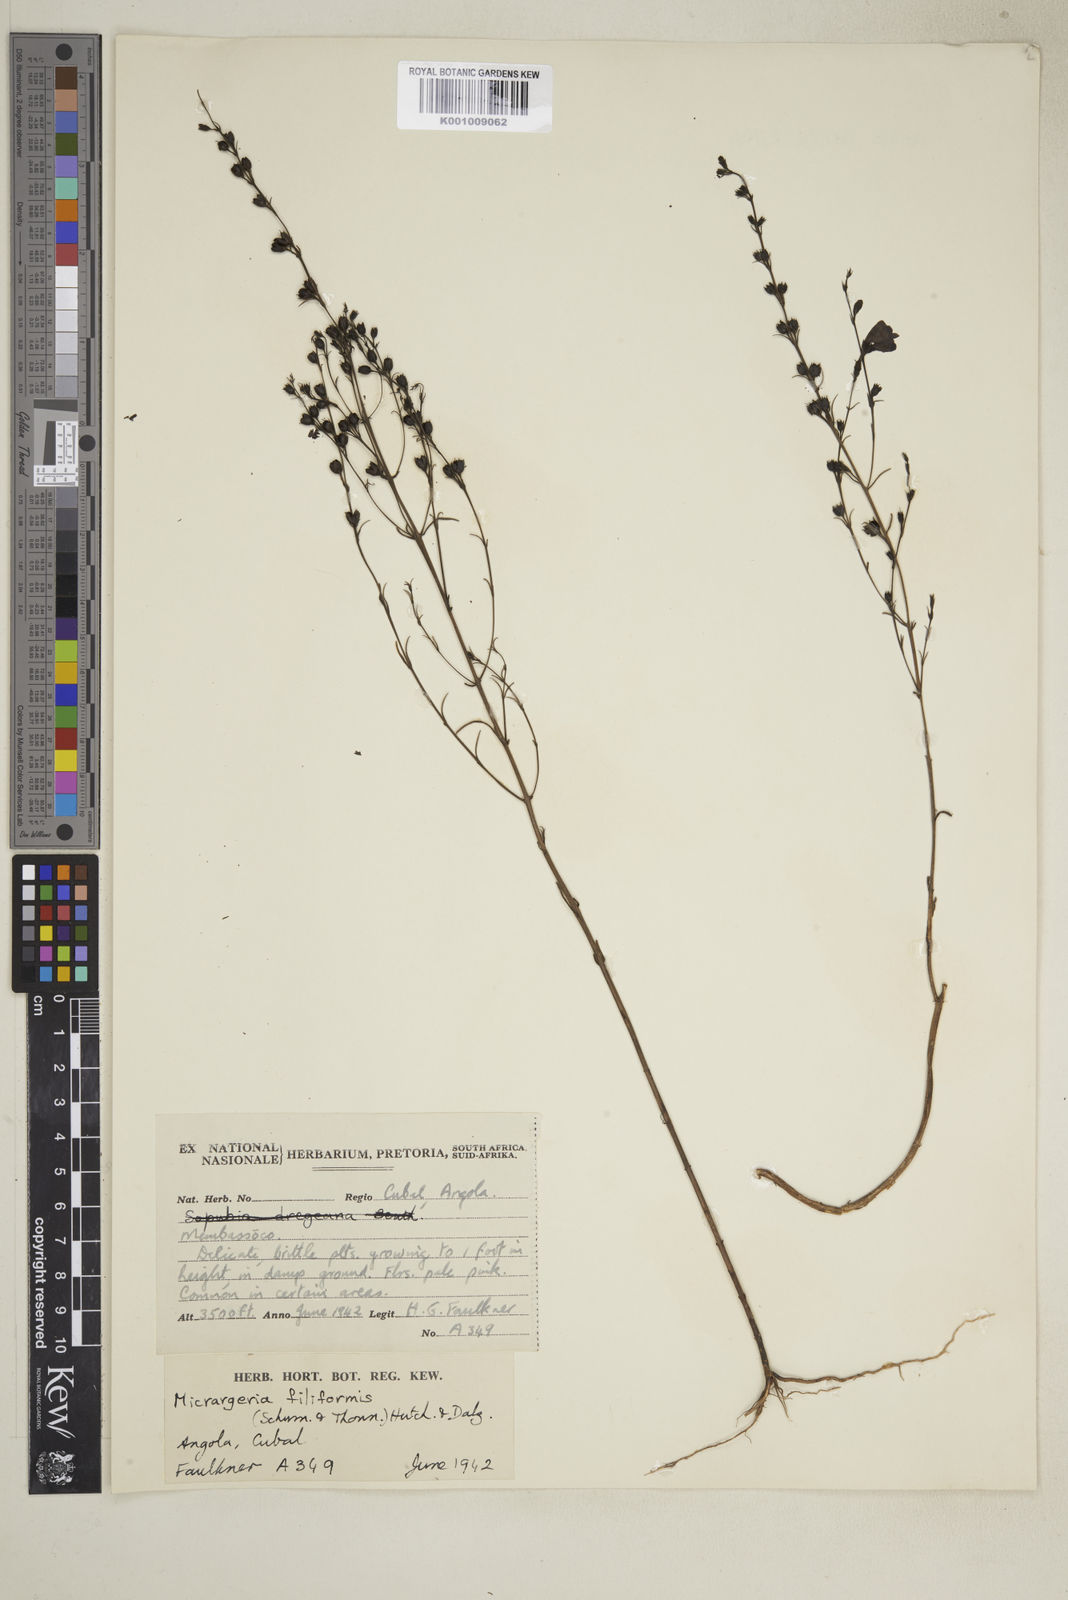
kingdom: Plantae
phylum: Tracheophyta
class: Magnoliopsida
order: Lamiales
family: Orobanchaceae
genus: Micrargeria
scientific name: Micrargeria filiformis
